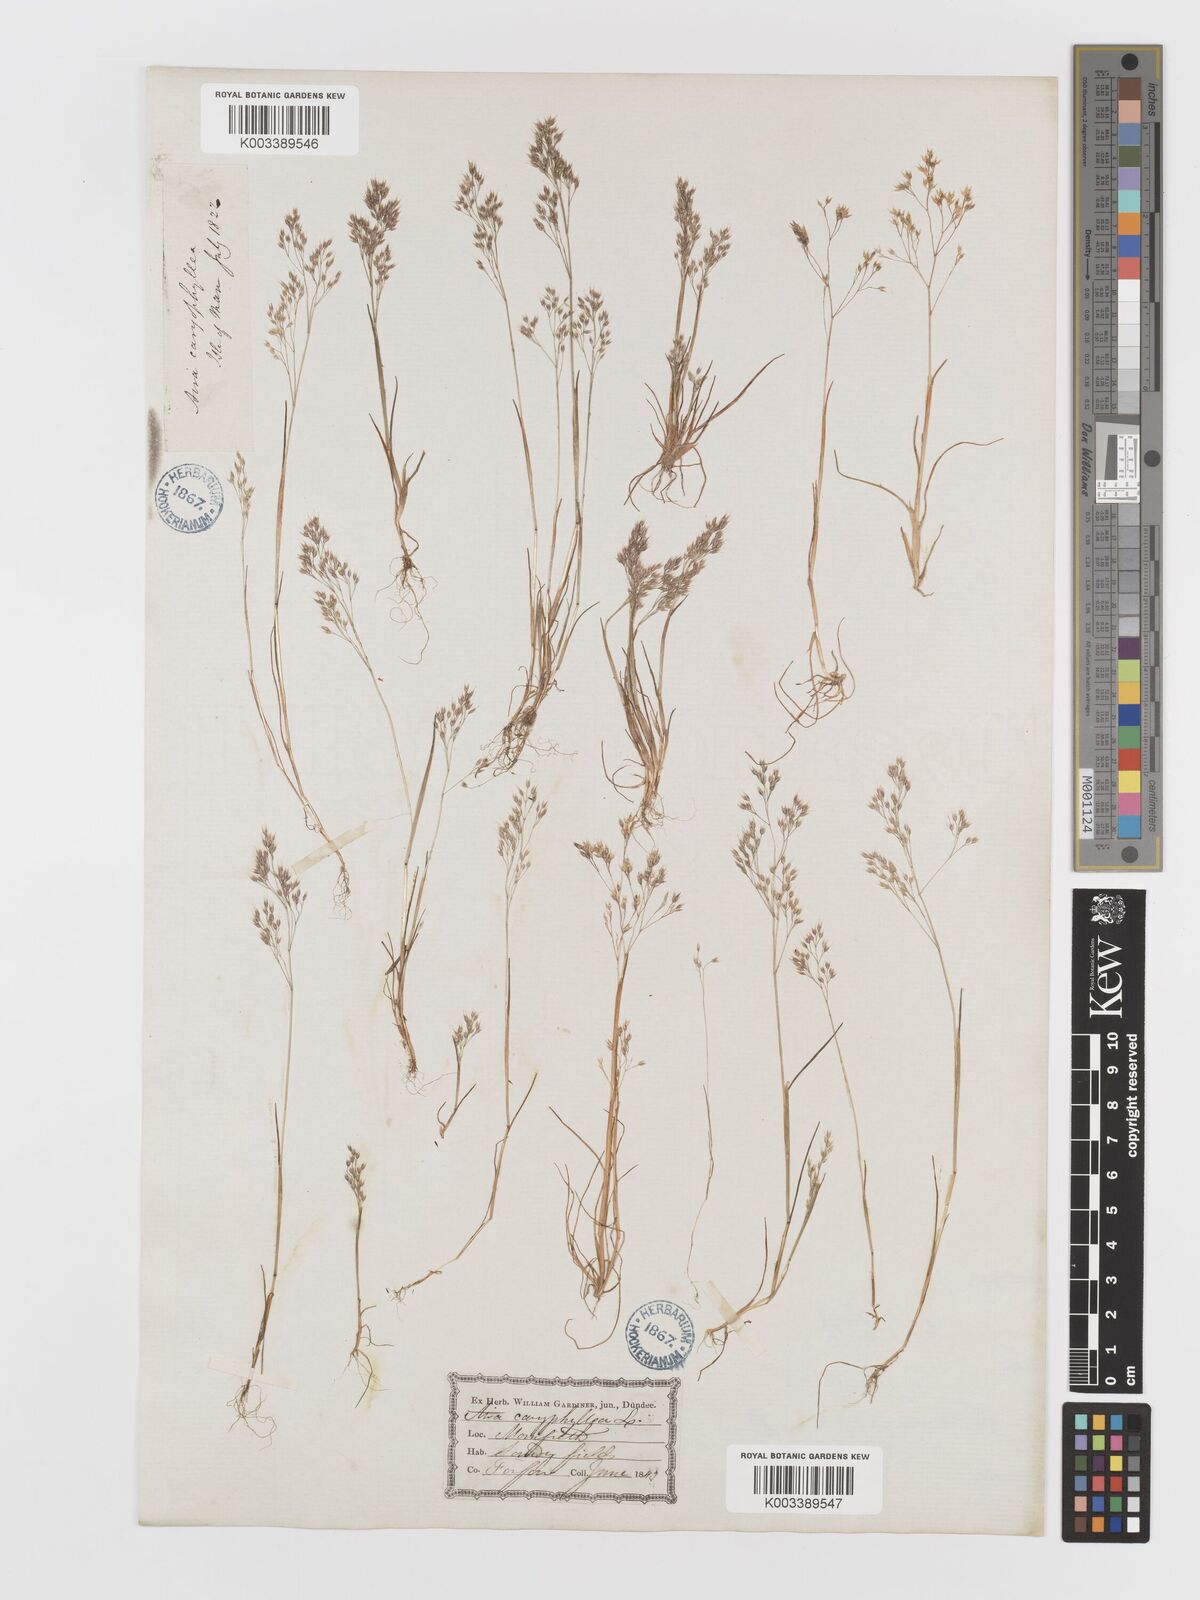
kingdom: Plantae
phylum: Tracheophyta
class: Liliopsida
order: Poales
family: Poaceae
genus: Aira
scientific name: Aira caryophyllea
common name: Silver hairgrass
